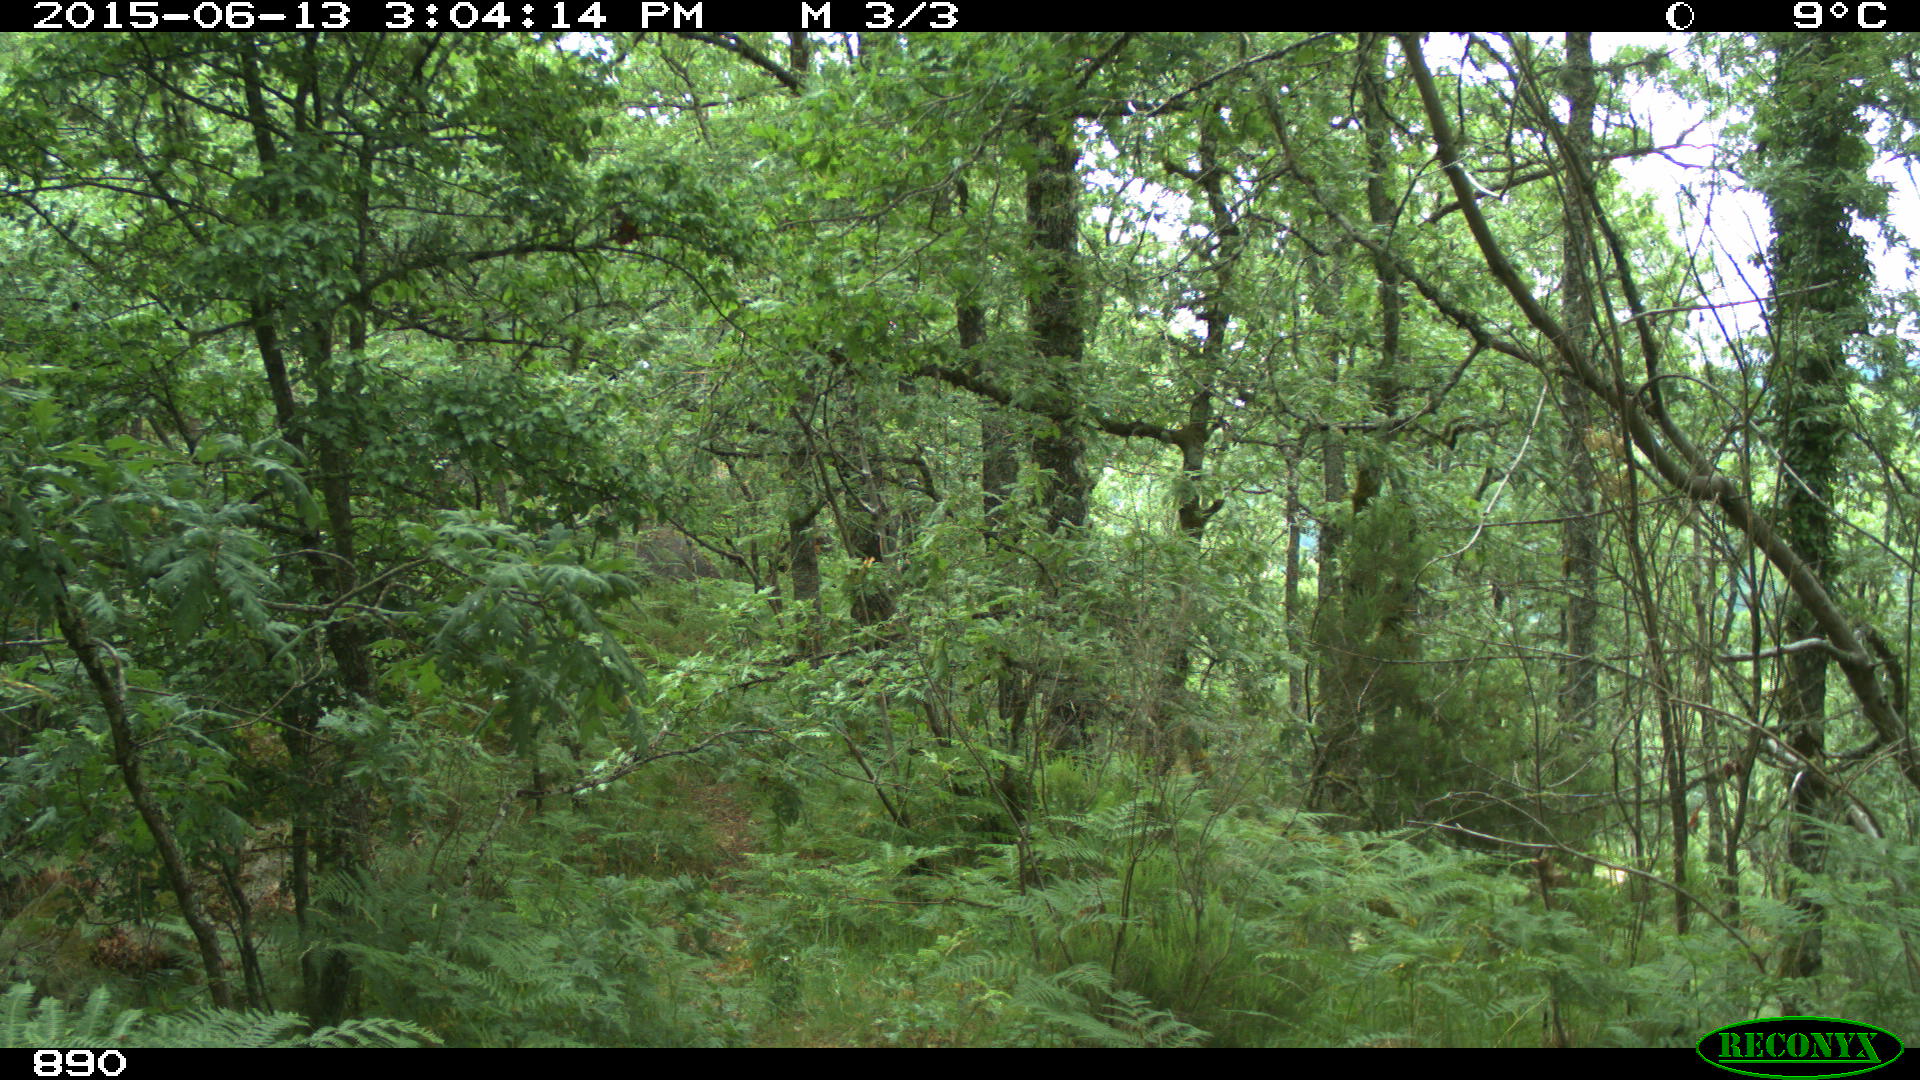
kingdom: Animalia
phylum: Chordata
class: Mammalia
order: Carnivora
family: Canidae
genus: Canis
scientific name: Canis lupus
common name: Gray wolf
